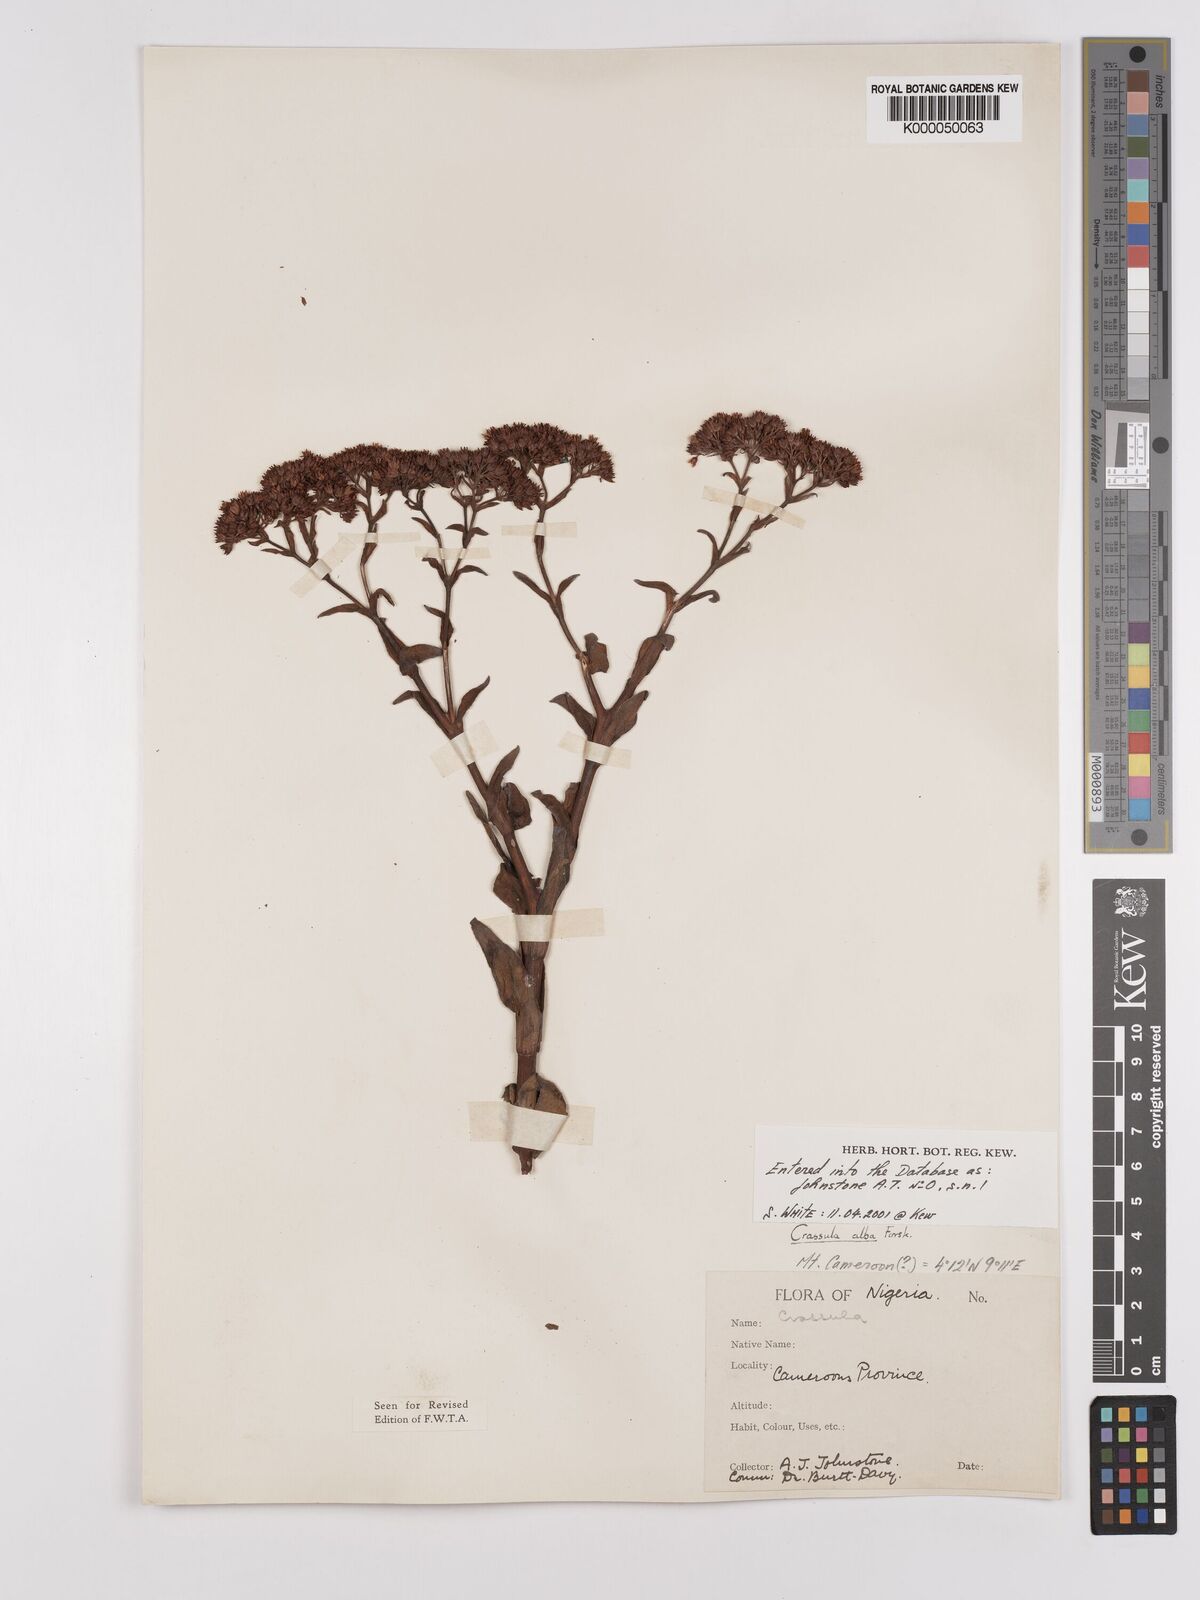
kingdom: Plantae
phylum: Tracheophyta
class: Magnoliopsida
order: Saxifragales
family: Crassulaceae
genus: Crassula
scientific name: Crassula vaginata
